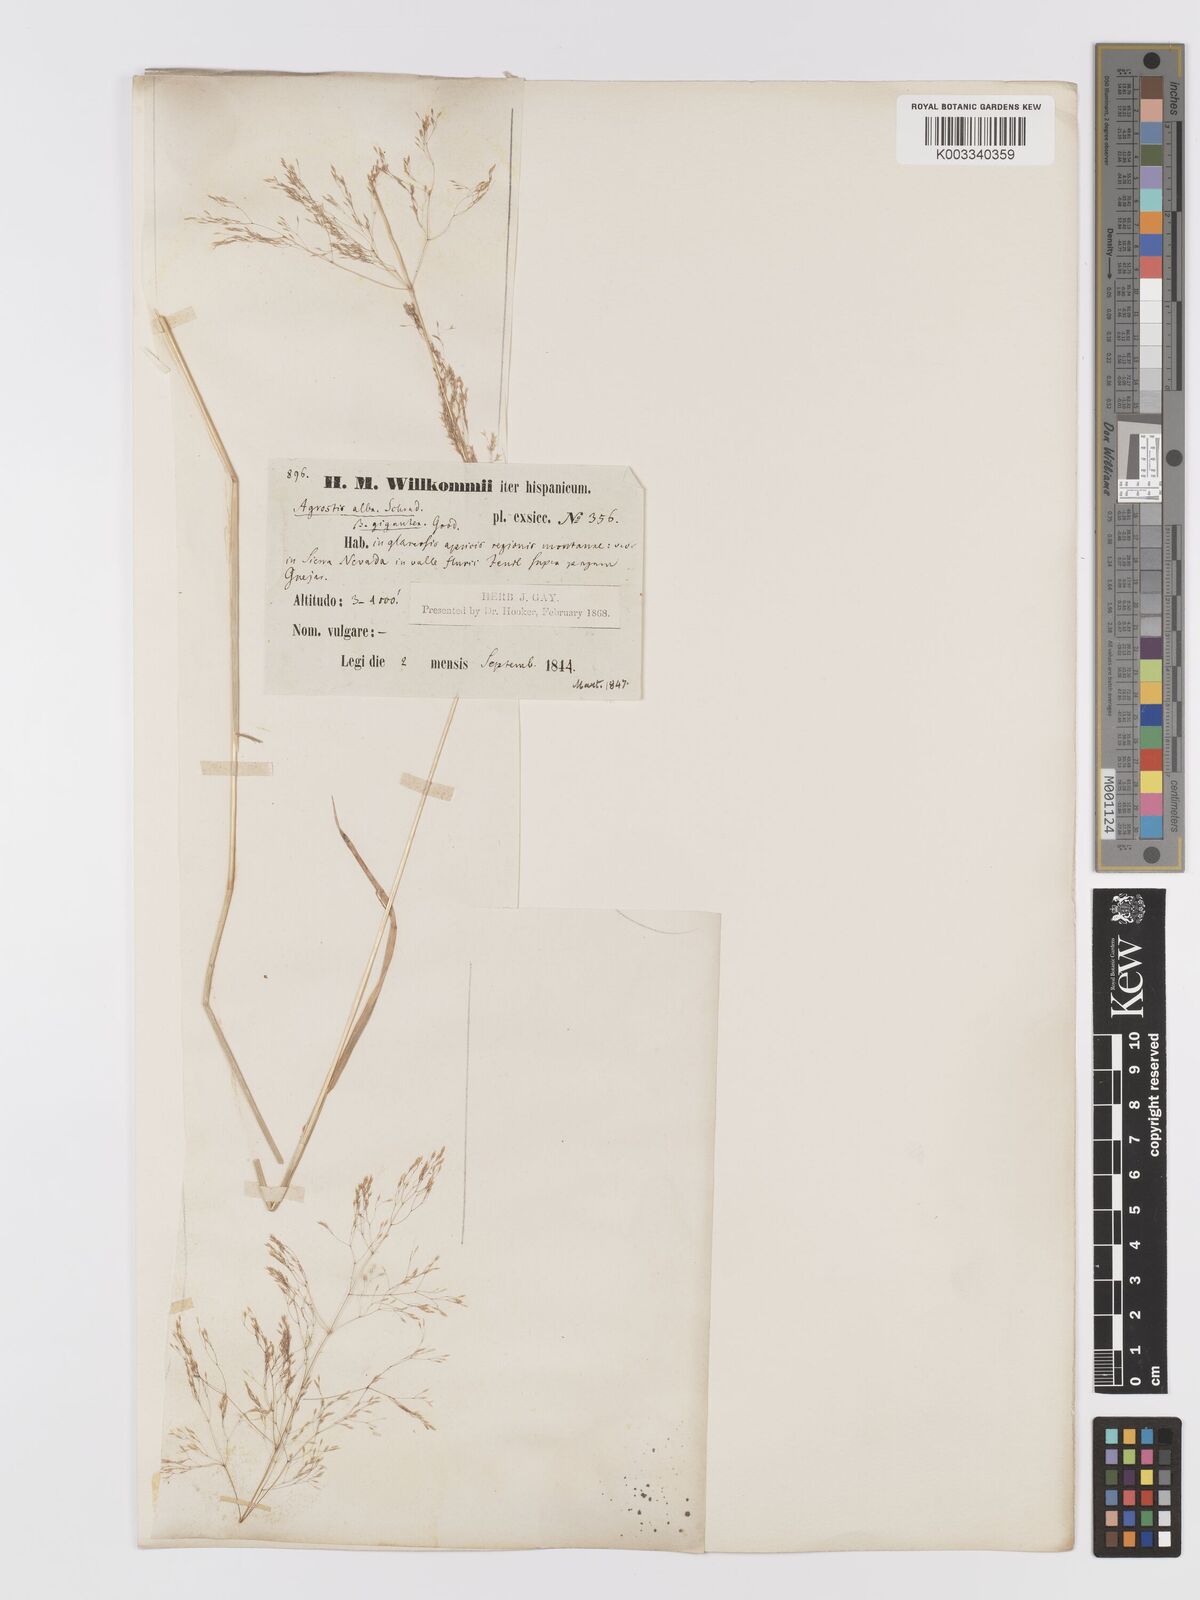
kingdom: Plantae
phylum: Tracheophyta
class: Liliopsida
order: Poales
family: Poaceae
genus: Agrostis
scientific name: Agrostis castellana
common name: Highland bent
